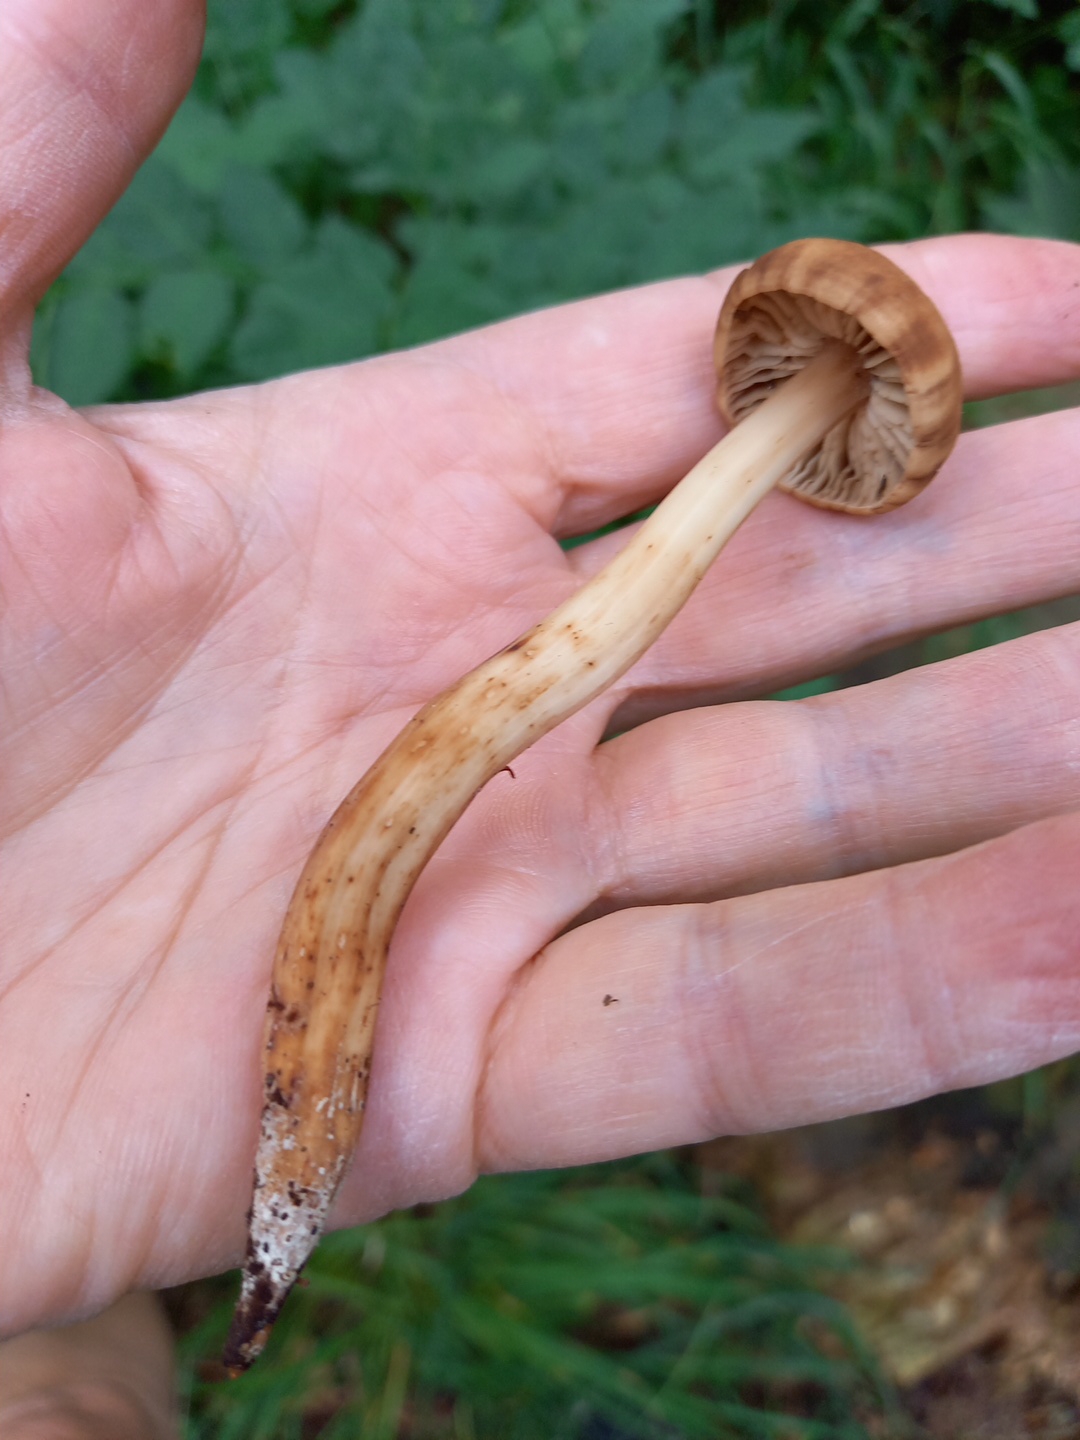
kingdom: Fungi
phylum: Basidiomycota
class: Agaricomycetes
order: Agaricales
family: Omphalotaceae
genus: Gymnopus
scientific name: Gymnopus fusipes
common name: tenstokket fladhat
